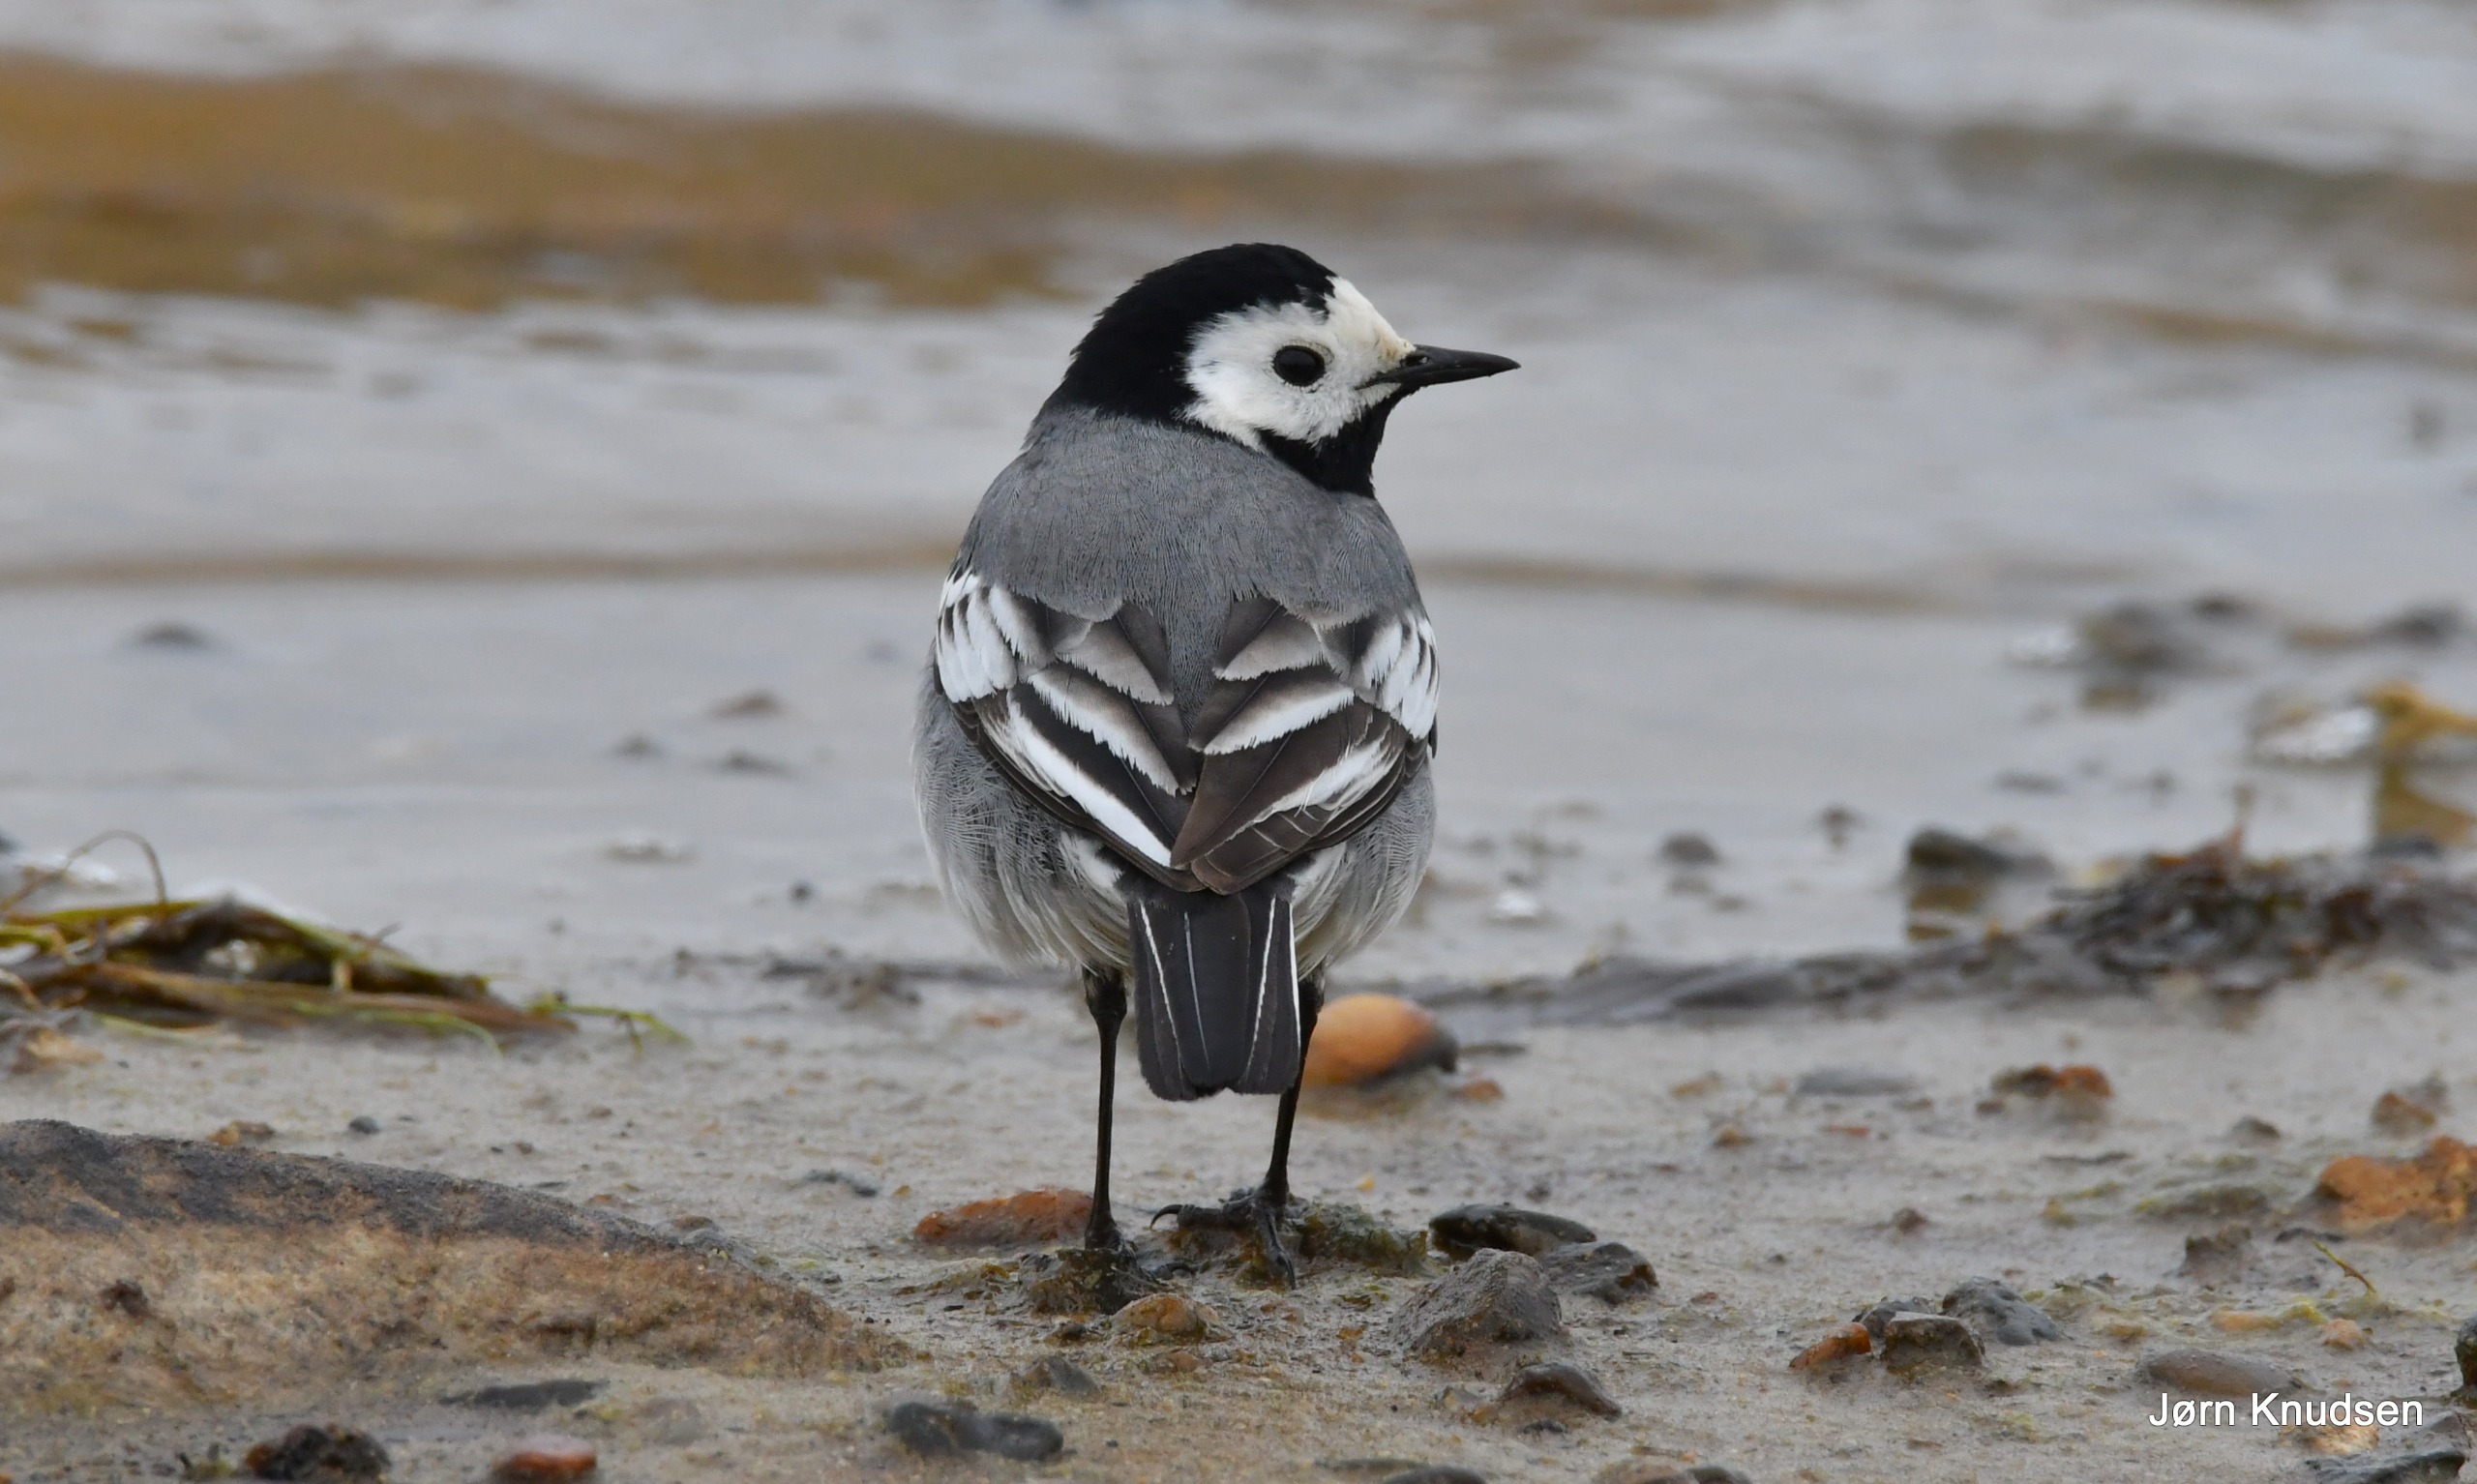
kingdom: Animalia
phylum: Chordata
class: Aves
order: Passeriformes
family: Motacillidae
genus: Motacilla
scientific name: Motacilla alba
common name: Hvid vipstjert
